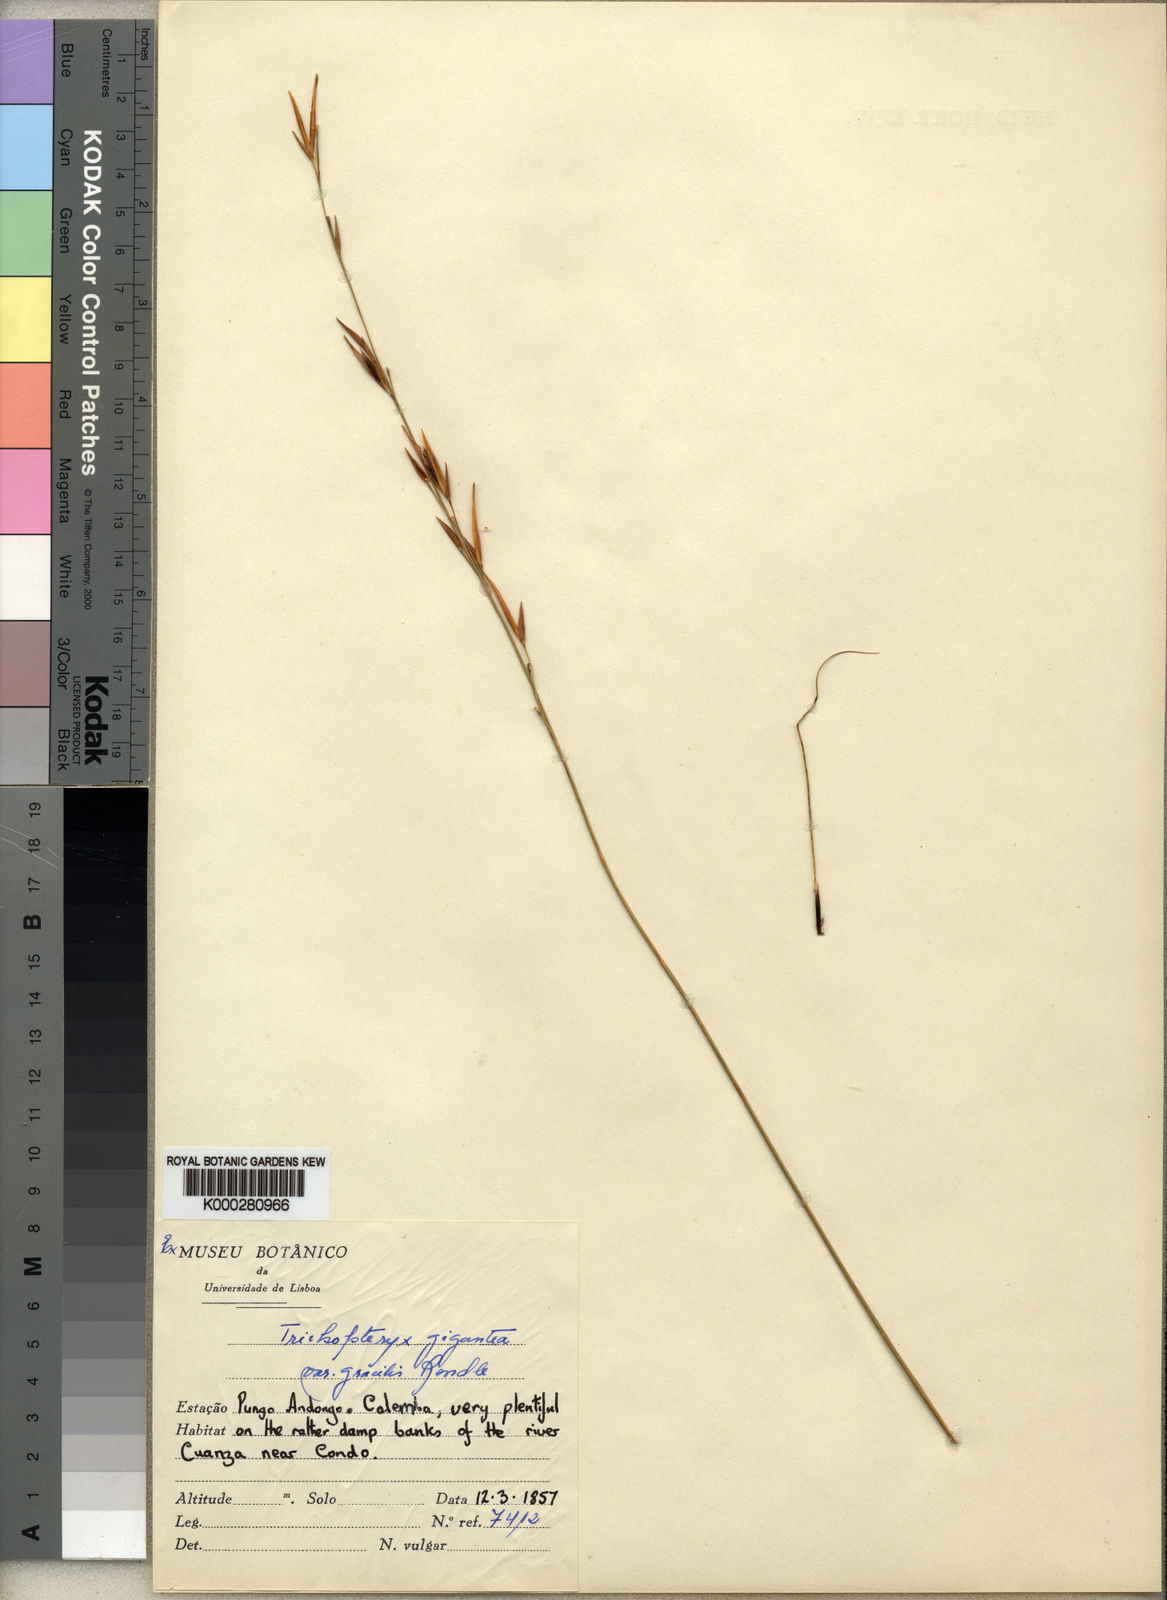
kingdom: Plantae
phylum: Tracheophyta
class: Liliopsida
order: Poales
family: Poaceae
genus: Tristachya
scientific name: Tristachya superba
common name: Giant trident grass
